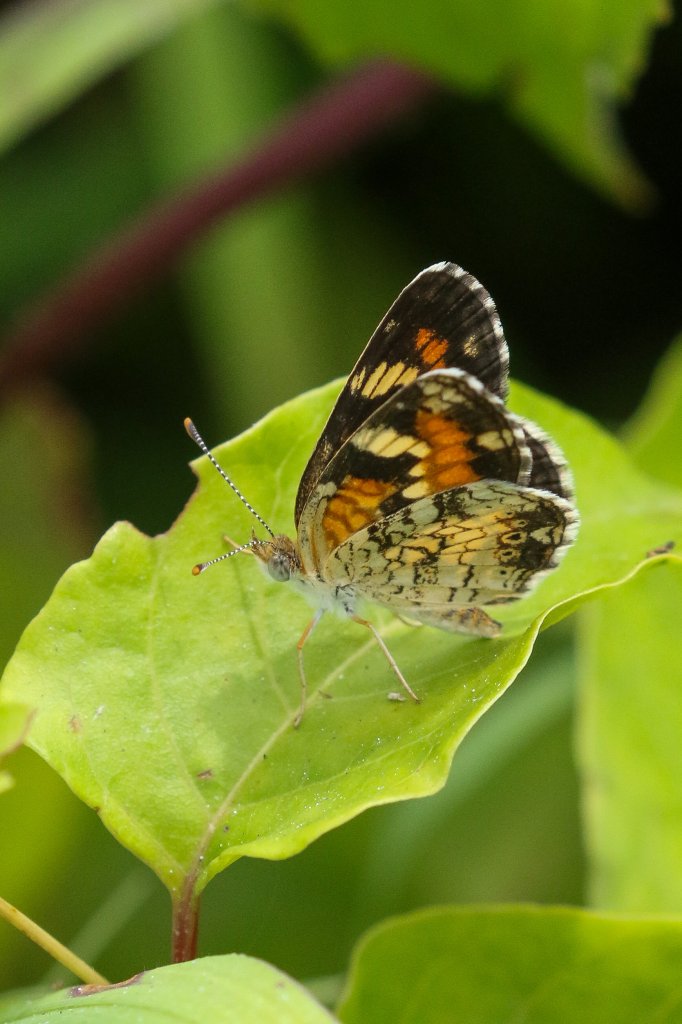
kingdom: Animalia
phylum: Arthropoda
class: Insecta
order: Lepidoptera
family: Nymphalidae
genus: Phyciodes
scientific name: Phyciodes phaon
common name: Phaon Crescent
